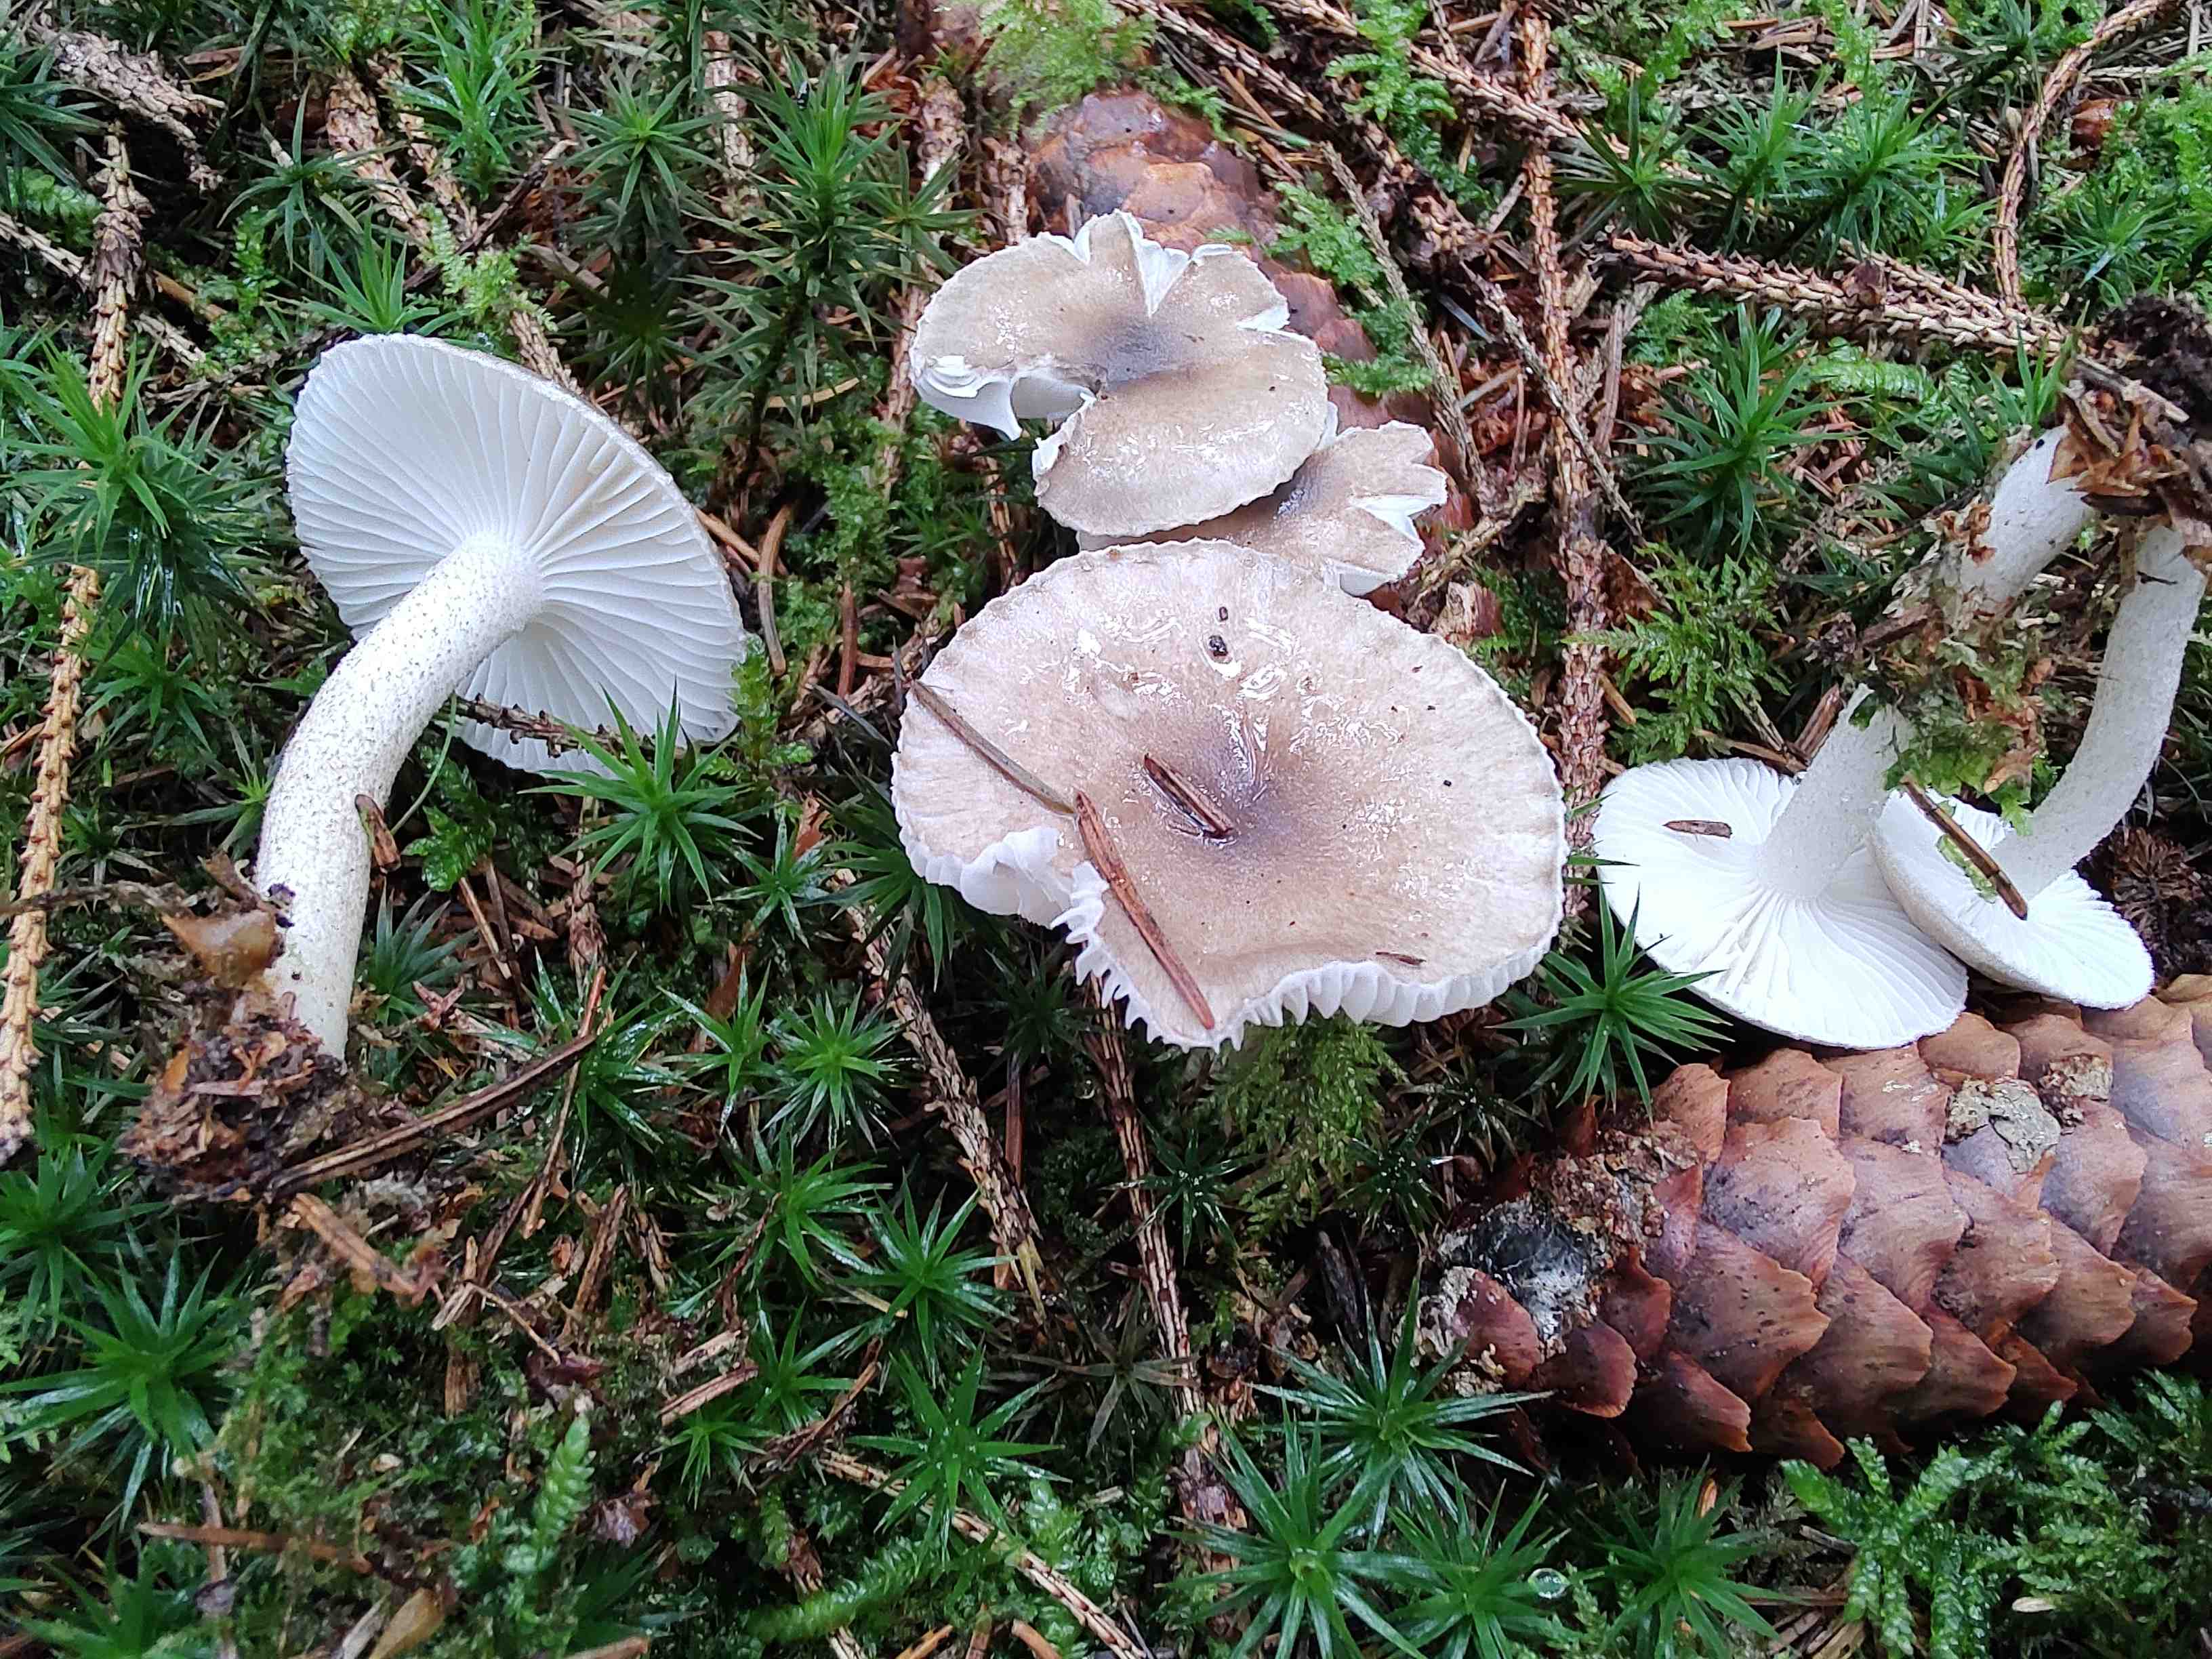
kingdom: Fungi
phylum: Basidiomycota
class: Agaricomycetes
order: Agaricales
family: Hygrophoraceae
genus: Hygrophorus
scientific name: Hygrophorus pustulatus
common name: mørkprikket sneglehat
